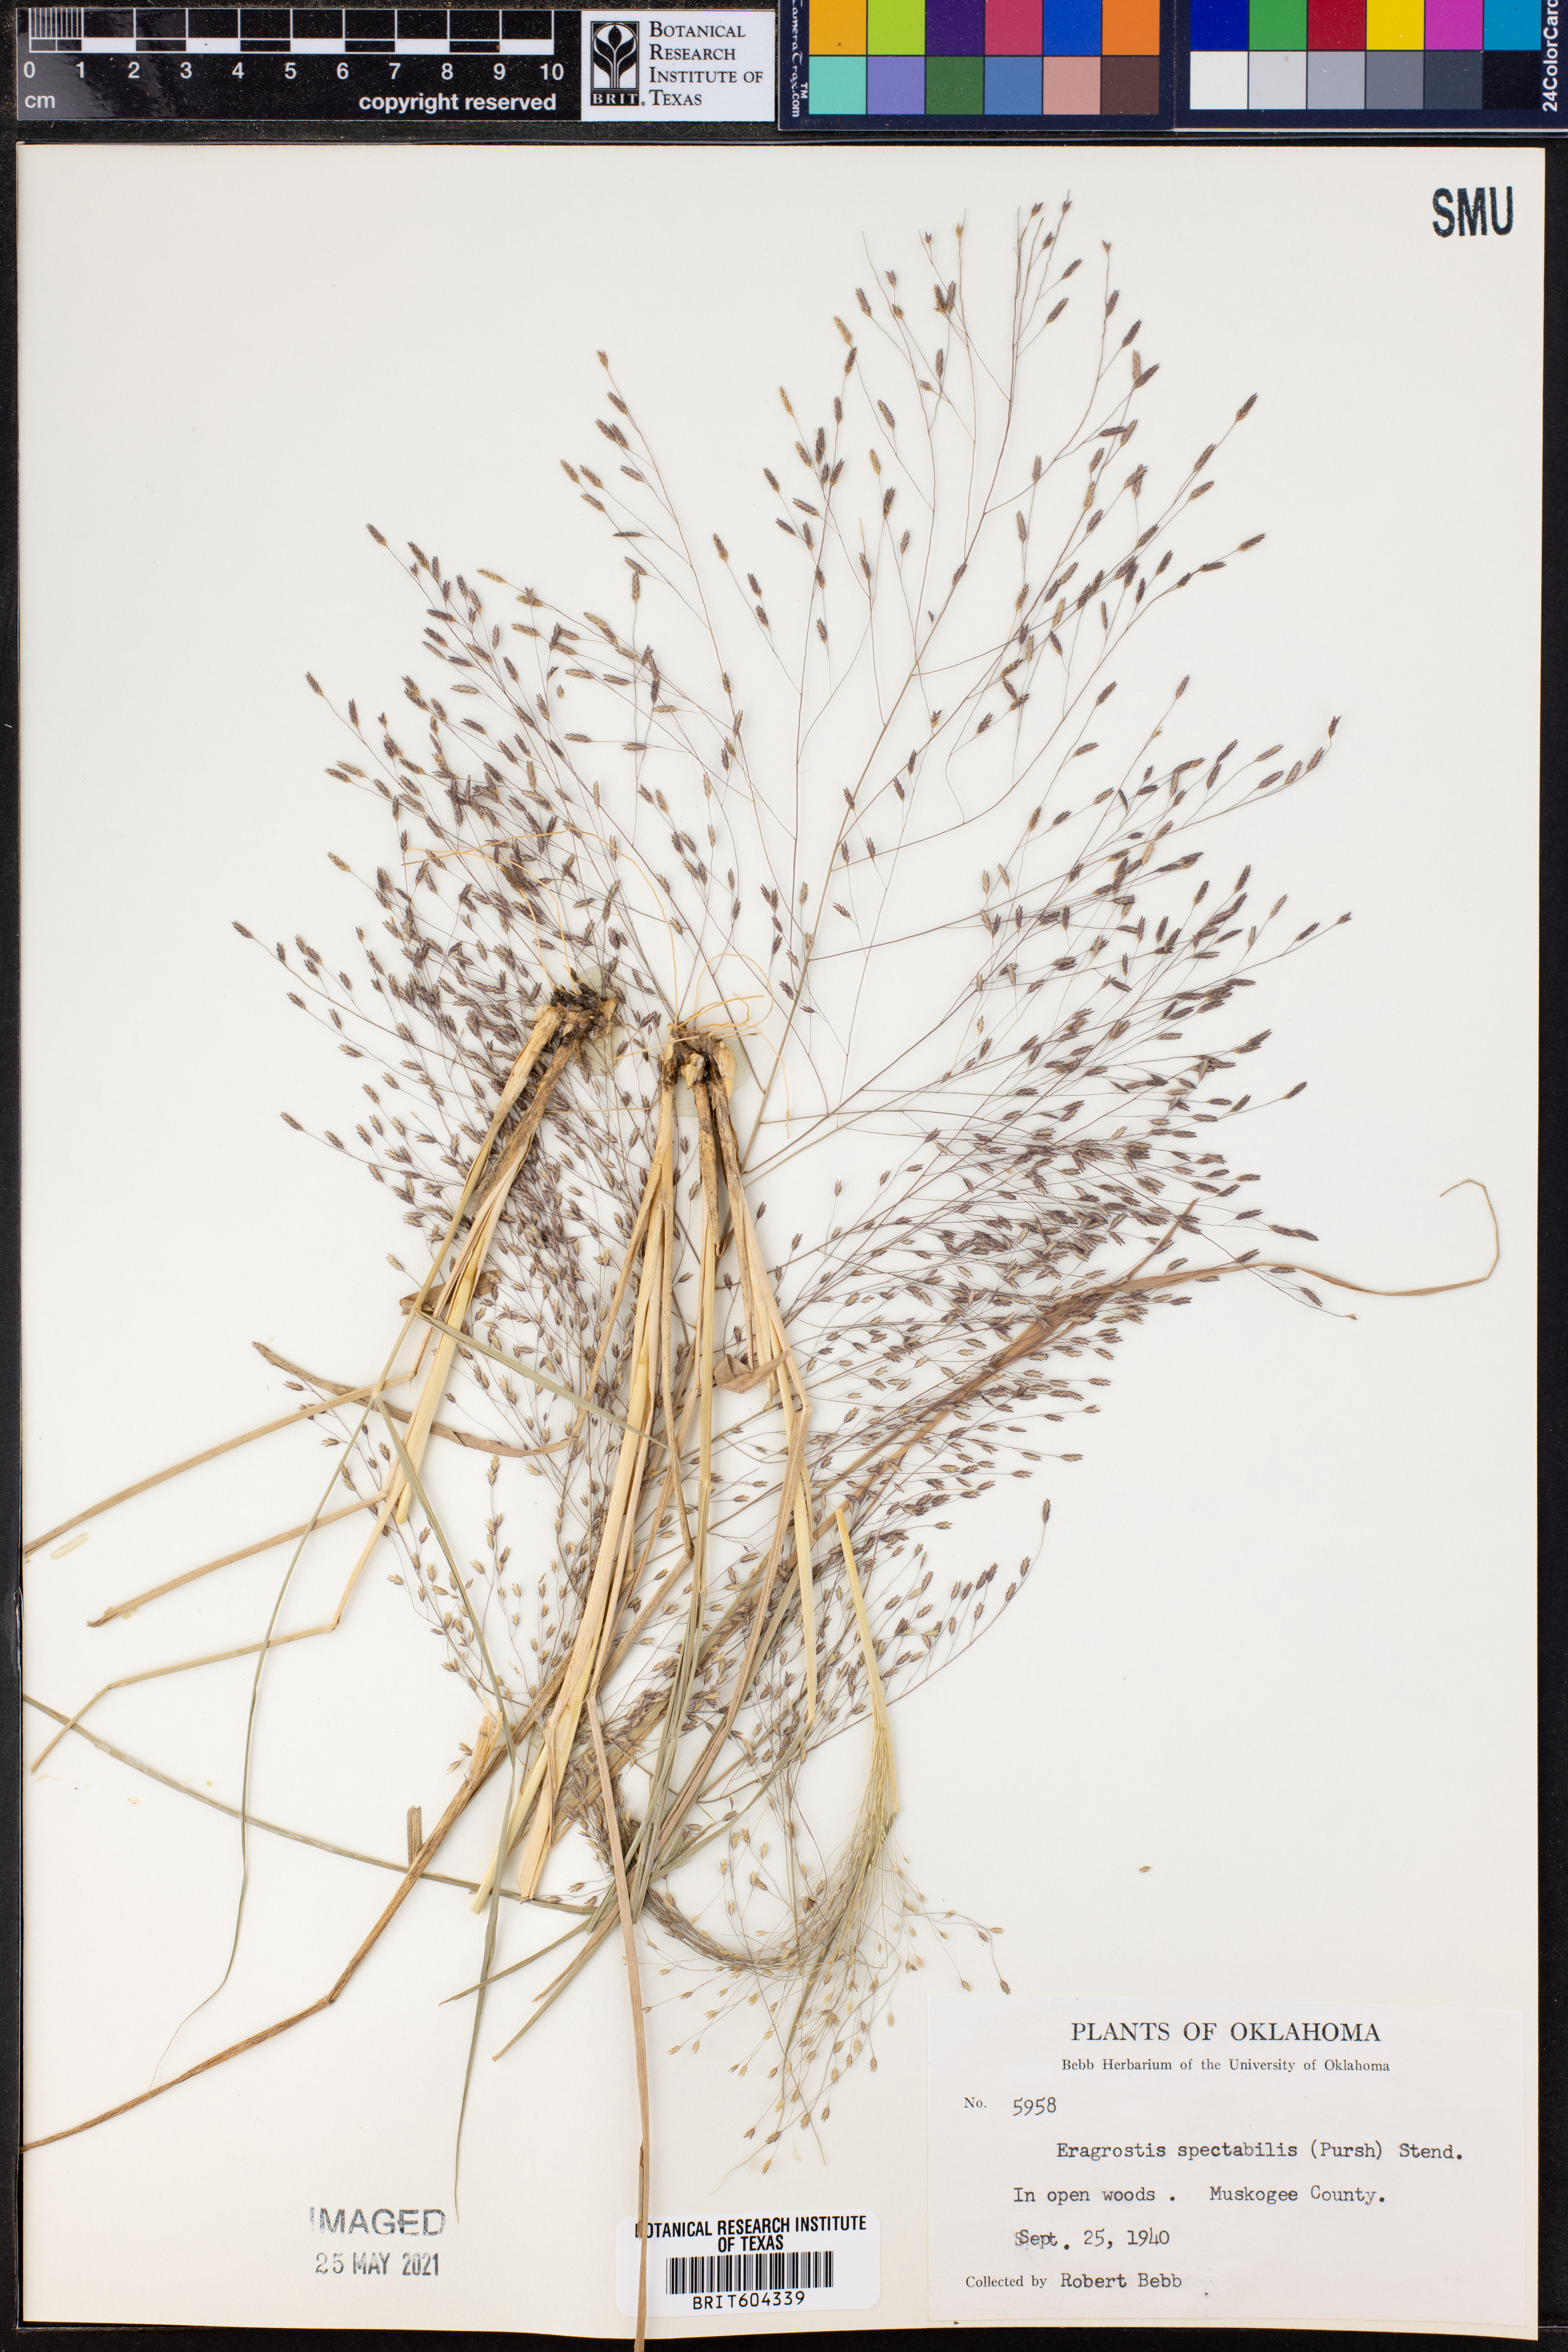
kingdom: Plantae
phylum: Tracheophyta
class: Liliopsida
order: Poales
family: Poaceae
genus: Eragrostis
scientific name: Eragrostis spectabilis
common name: Petticoat-climber
